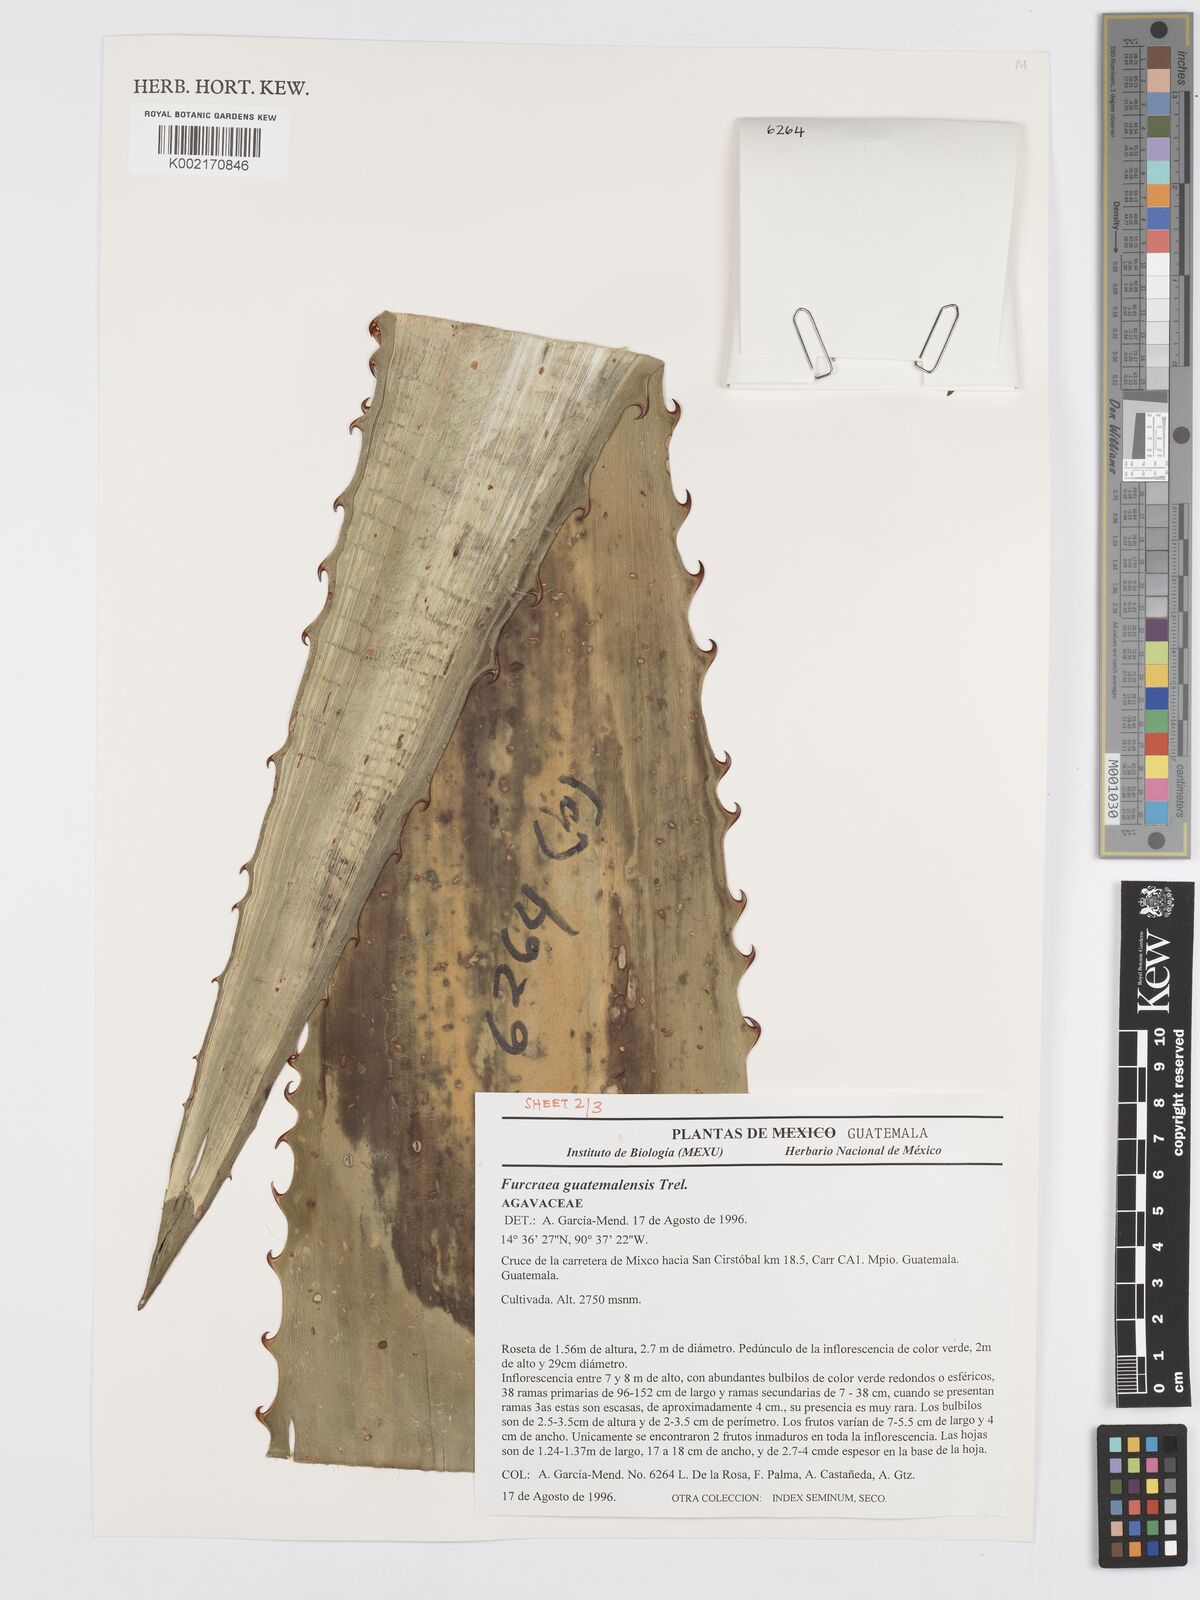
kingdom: Plantae
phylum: Tracheophyta
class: Liliopsida
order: Asparagales
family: Asparagaceae
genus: Furcraea
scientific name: Furcraea guatemalensis
